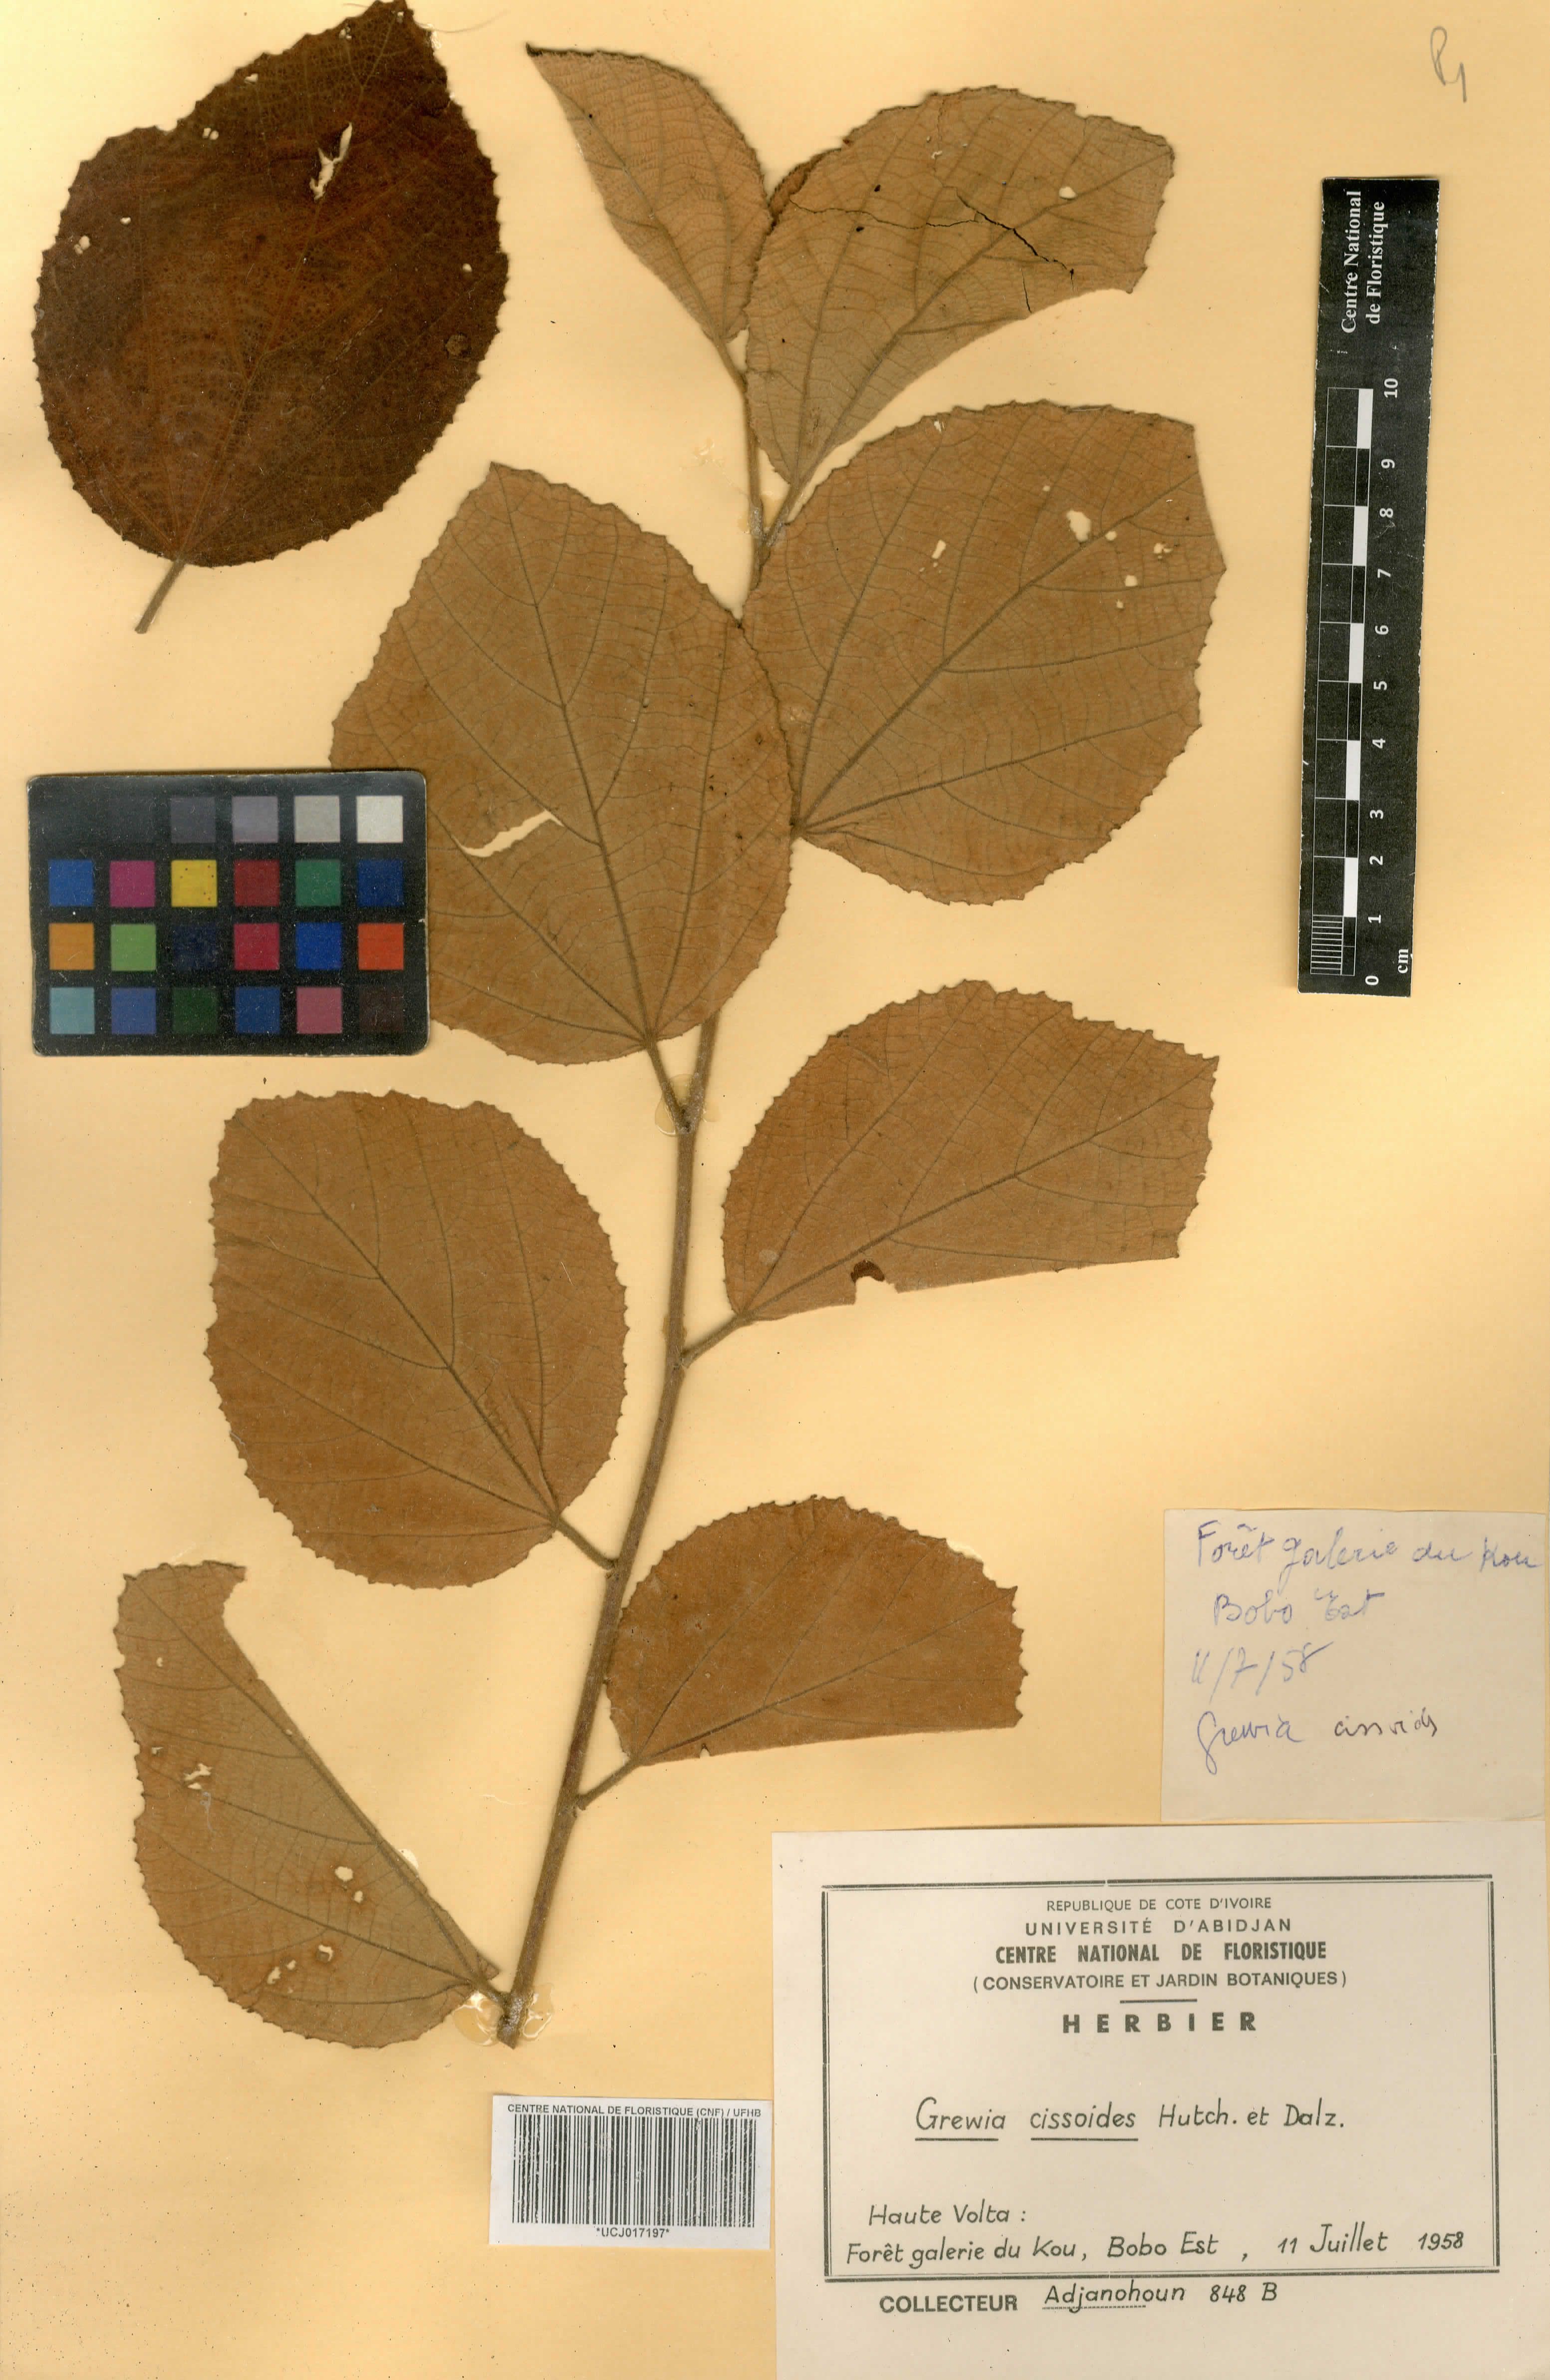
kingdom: Plantae
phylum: Tracheophyta
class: Magnoliopsida
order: Malvales
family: Malvaceae
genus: Grewia
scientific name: Grewia cissoides
